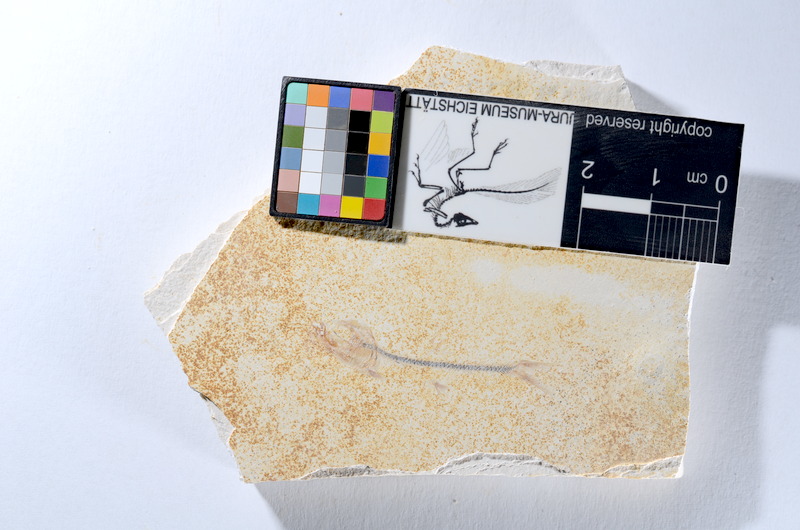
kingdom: Animalia
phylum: Chordata
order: Salmoniformes
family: Orthogonikleithridae
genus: Orthogonikleithrus
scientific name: Orthogonikleithrus hoelli
